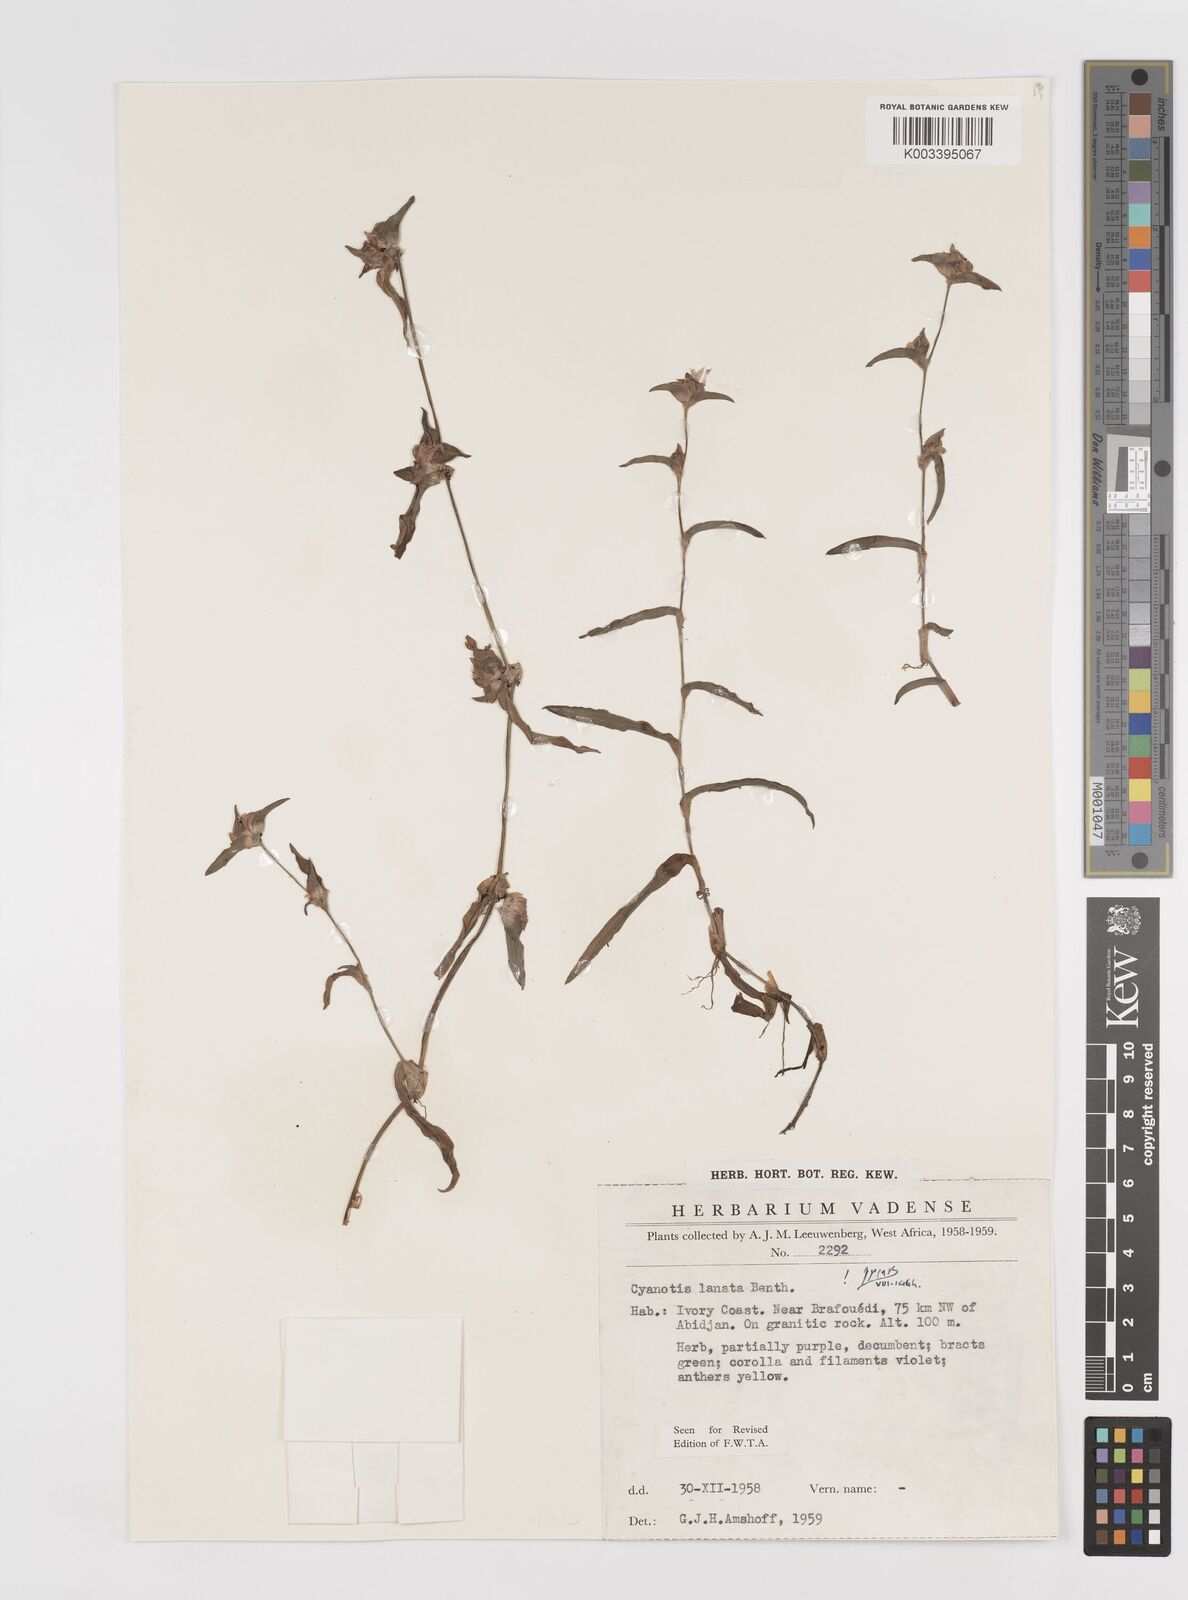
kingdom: Plantae
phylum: Tracheophyta
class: Liliopsida
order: Commelinales
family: Commelinaceae
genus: Cyanotis
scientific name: Cyanotis lanata
